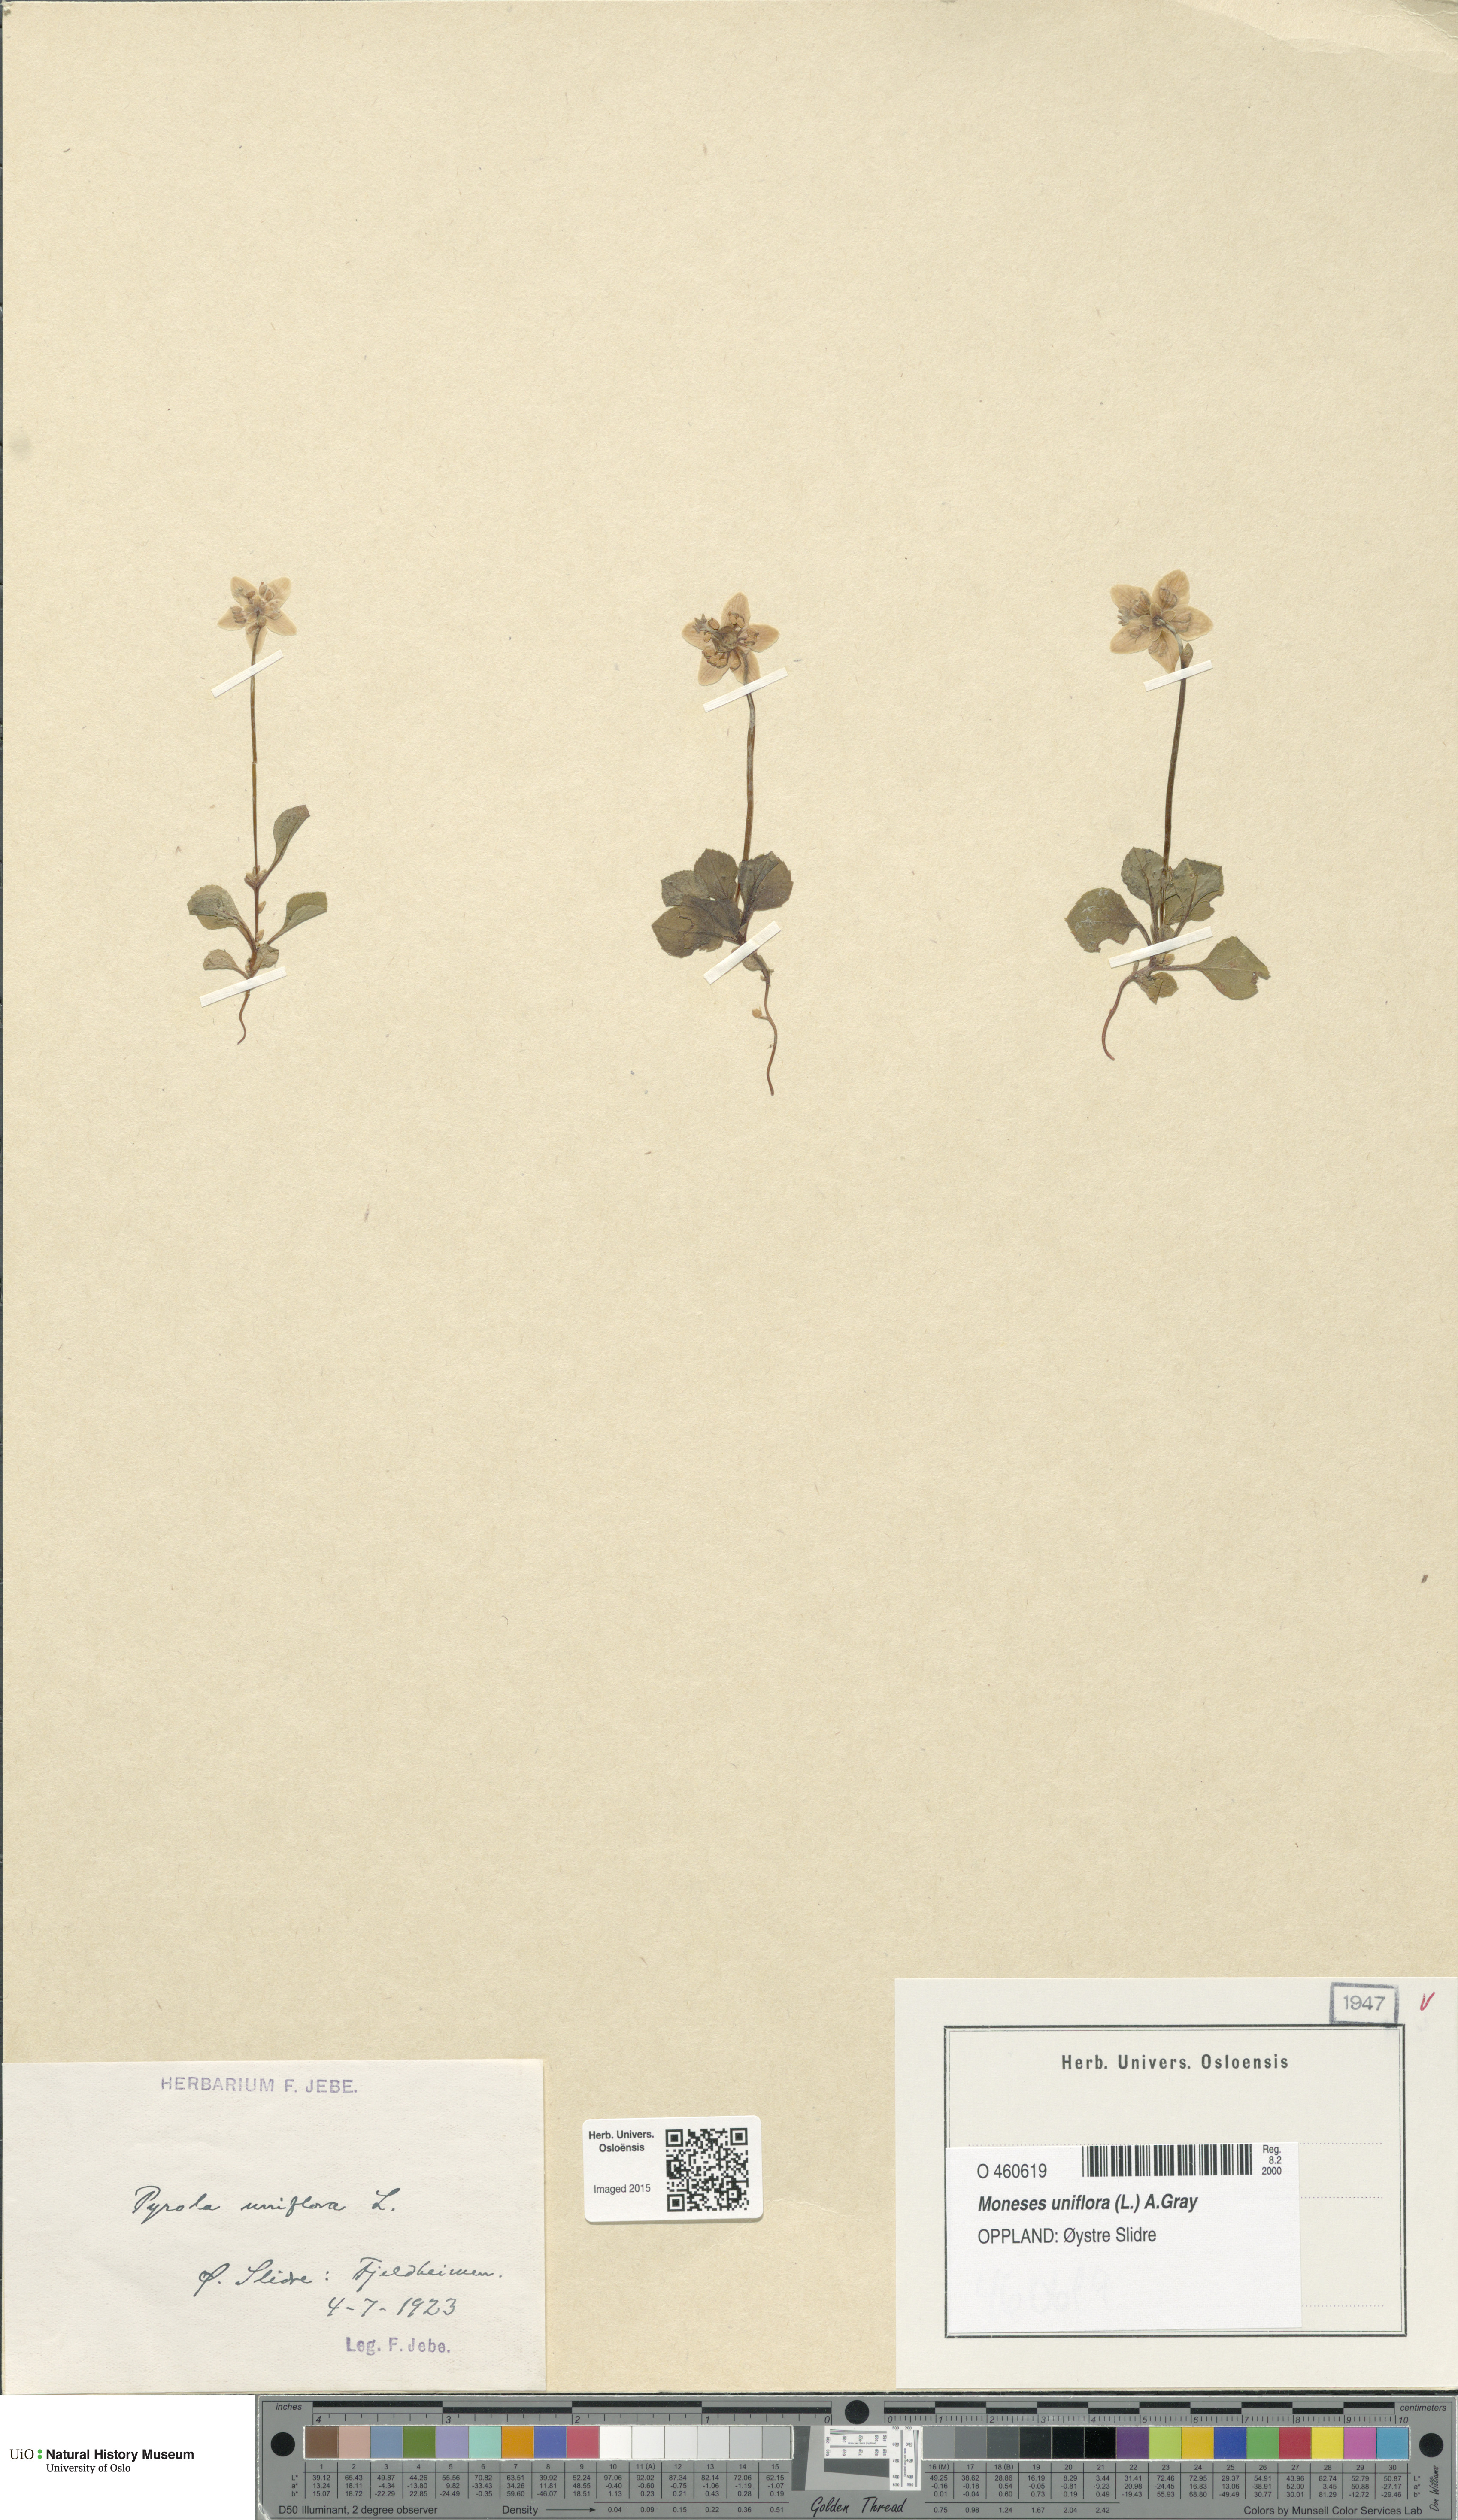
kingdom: Plantae
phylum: Tracheophyta
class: Magnoliopsida
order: Ericales
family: Ericaceae
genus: Moneses
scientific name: Moneses uniflora
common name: One-flowered wintergreen
